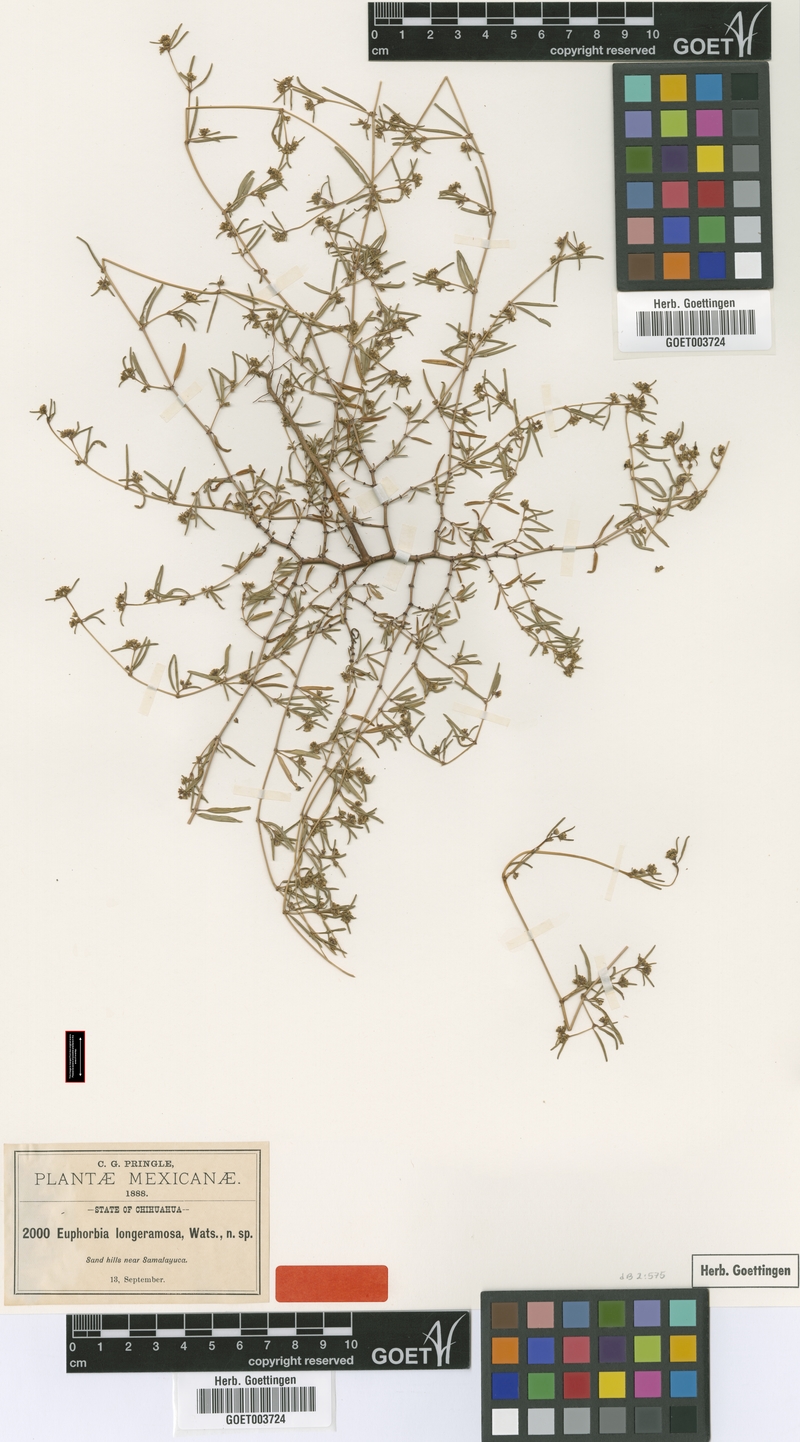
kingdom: Plantae
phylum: Tracheophyta
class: Magnoliopsida
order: Malpighiales
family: Euphorbiaceae
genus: Euphorbia
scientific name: Euphorbia parryi
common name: Dune spurge
